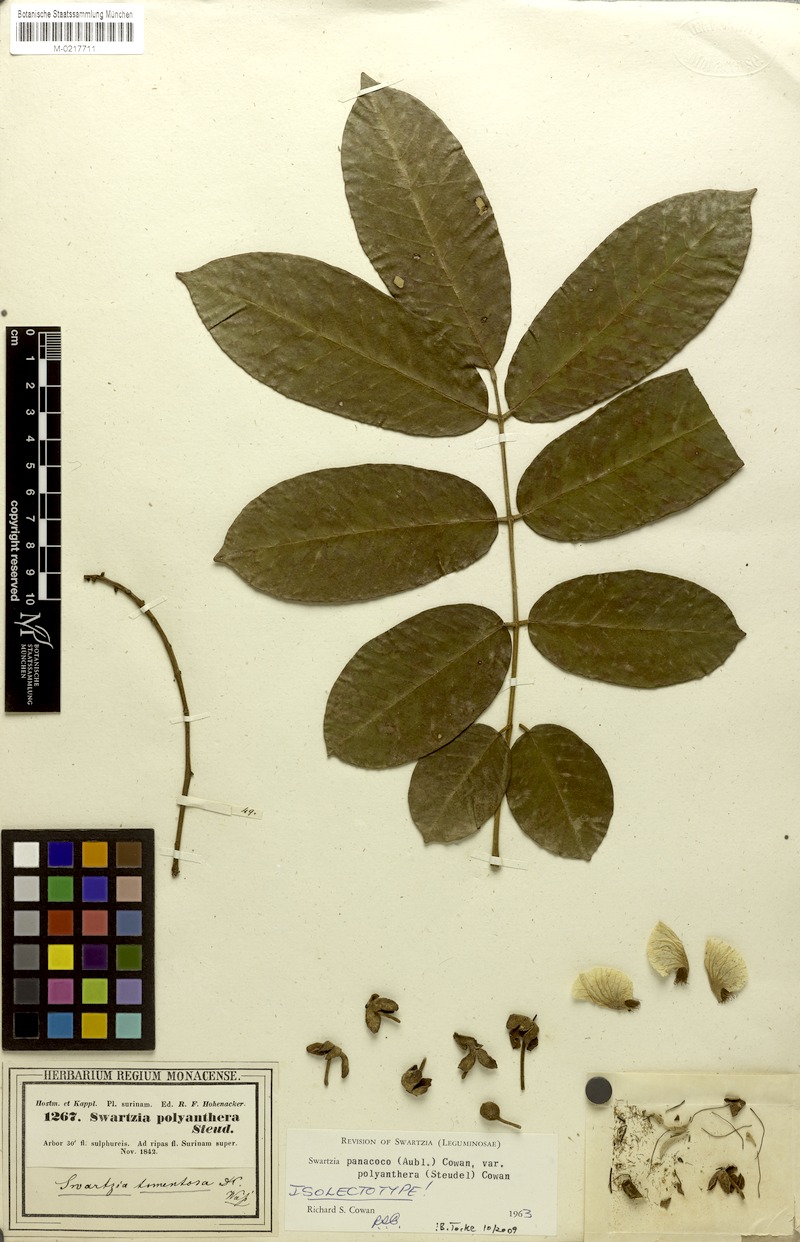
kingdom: Plantae
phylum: Tracheophyta
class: Magnoliopsida
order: Fabales
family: Fabaceae
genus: Swartzia
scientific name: Swartzia panacoco
